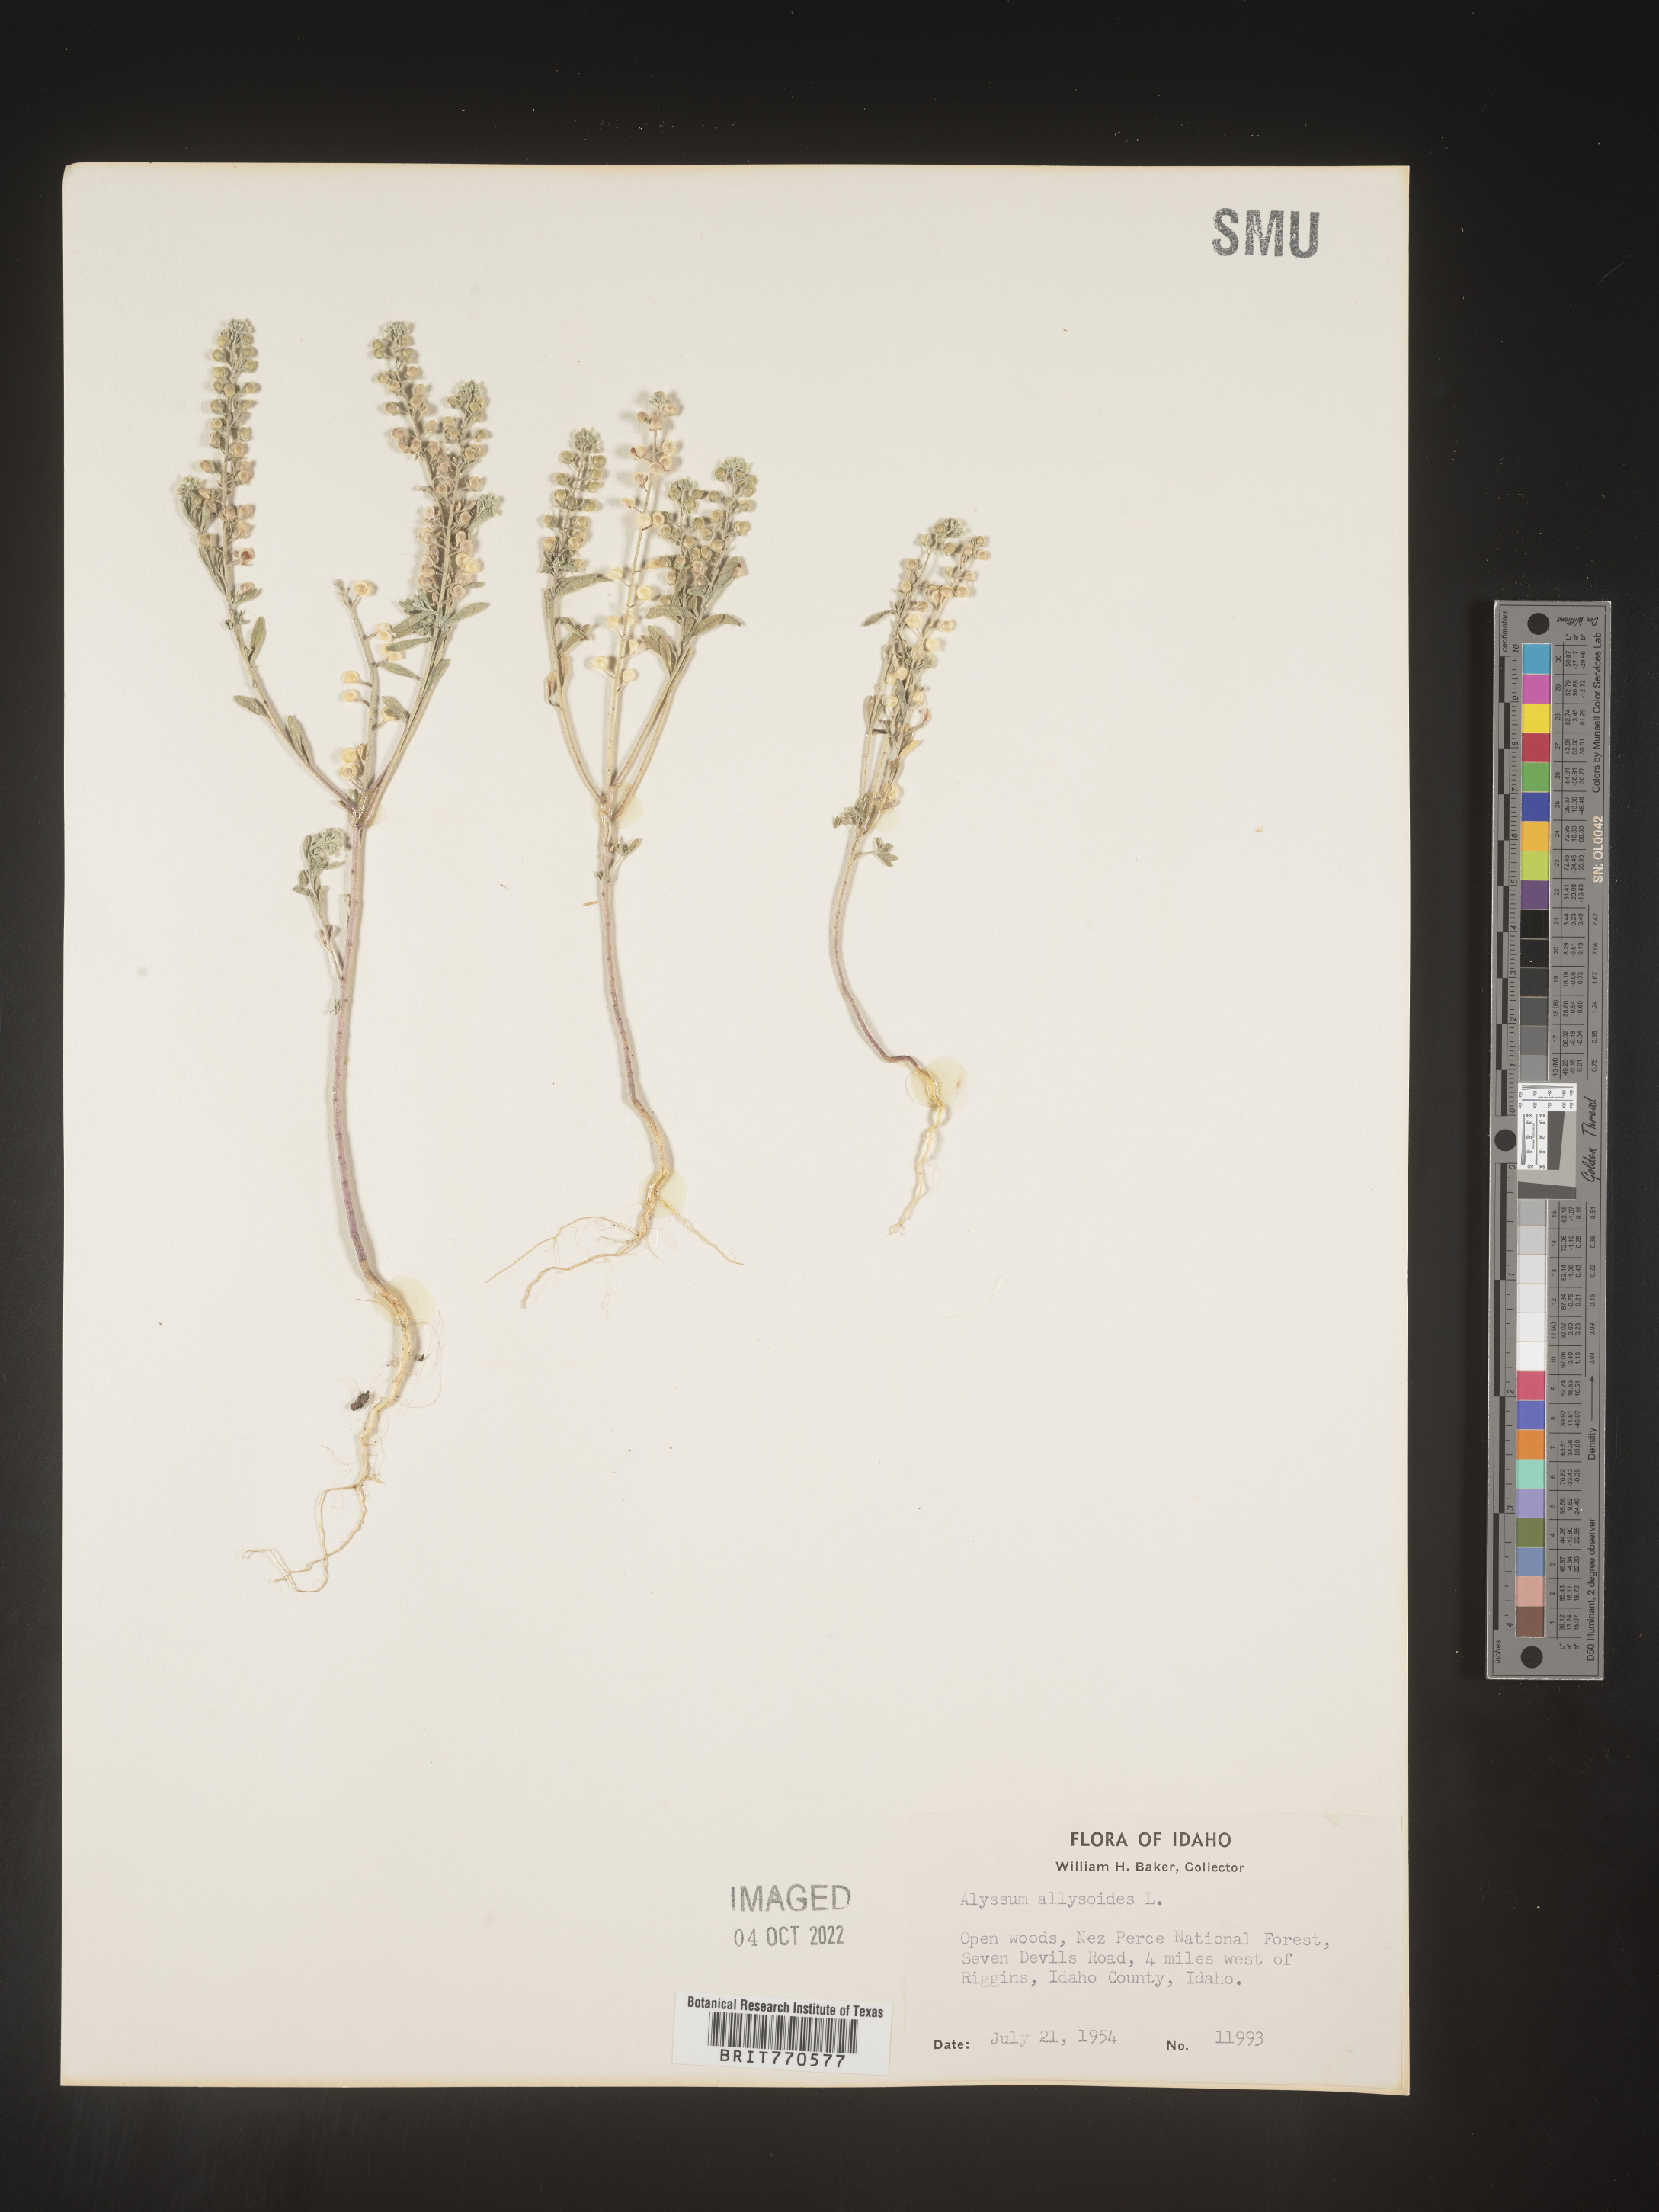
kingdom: Plantae
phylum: Tracheophyta
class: Magnoliopsida
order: Brassicales
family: Brassicaceae
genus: Alyssum
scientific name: Alyssum alyssoides
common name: Small alison
